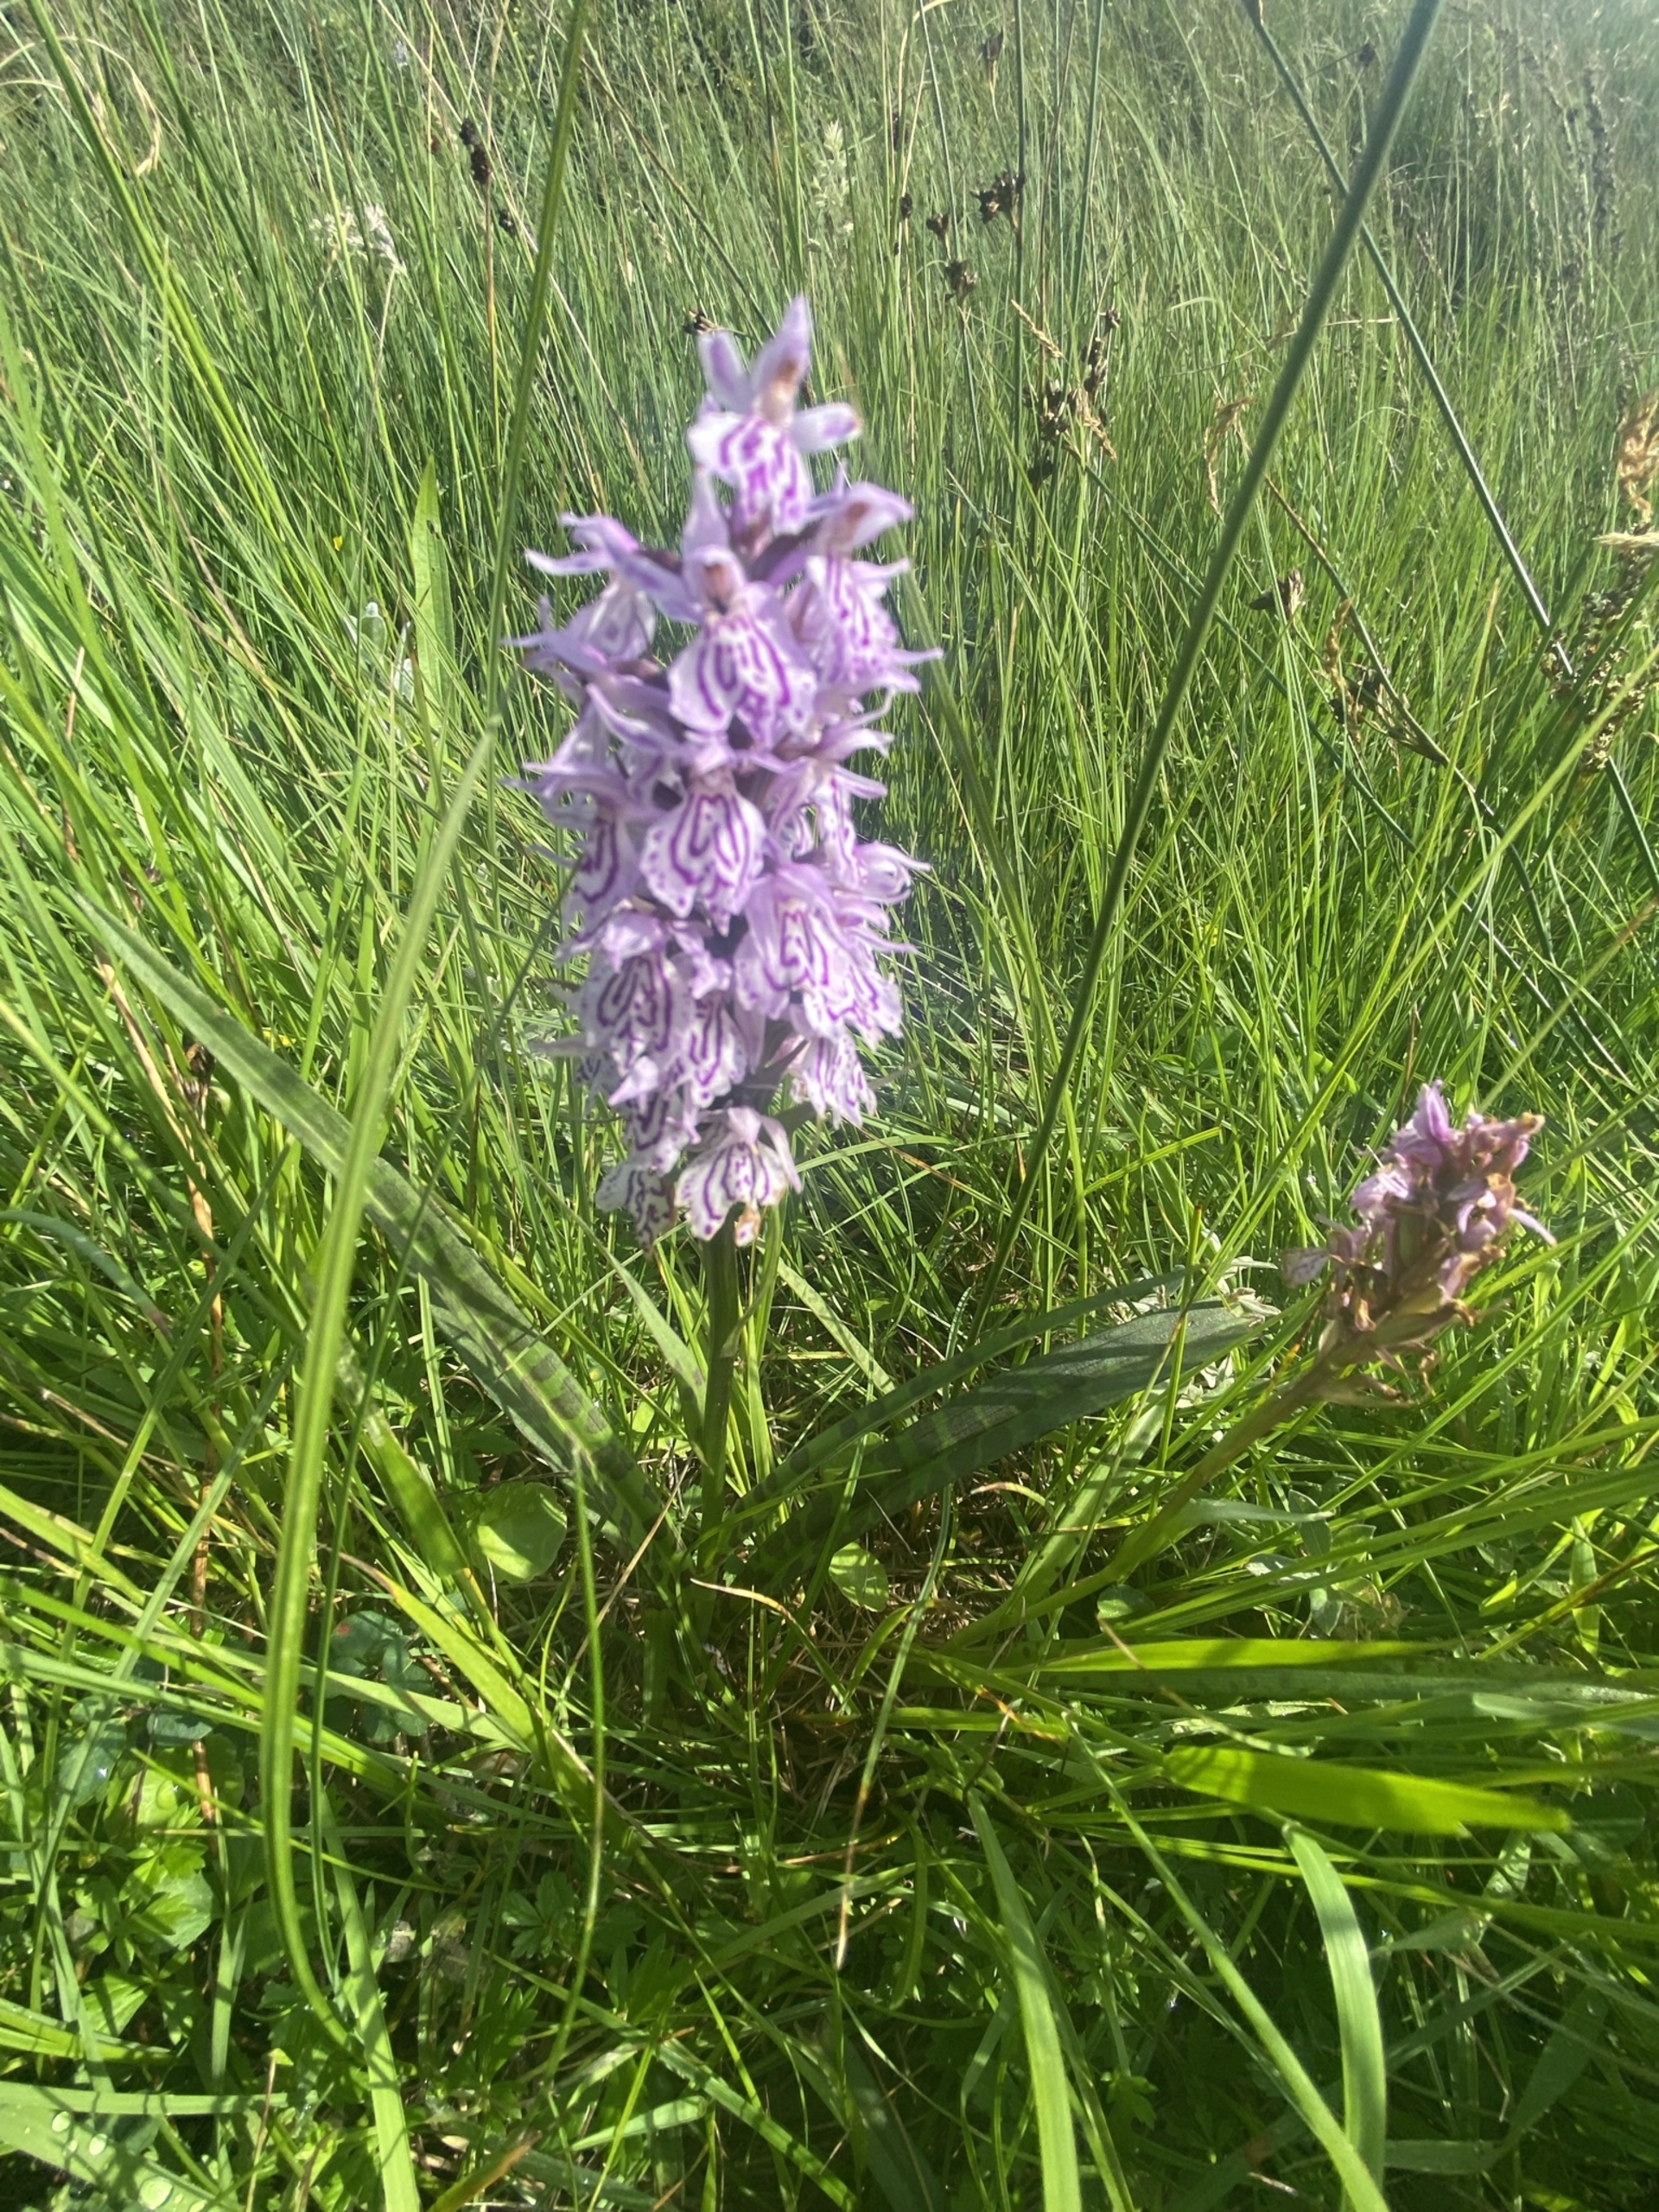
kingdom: Plantae
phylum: Tracheophyta
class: Liliopsida
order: Asparagales
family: Orchidaceae
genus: Dactylorhiza
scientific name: Dactylorhiza maculata
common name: Plettet gøgeurt
